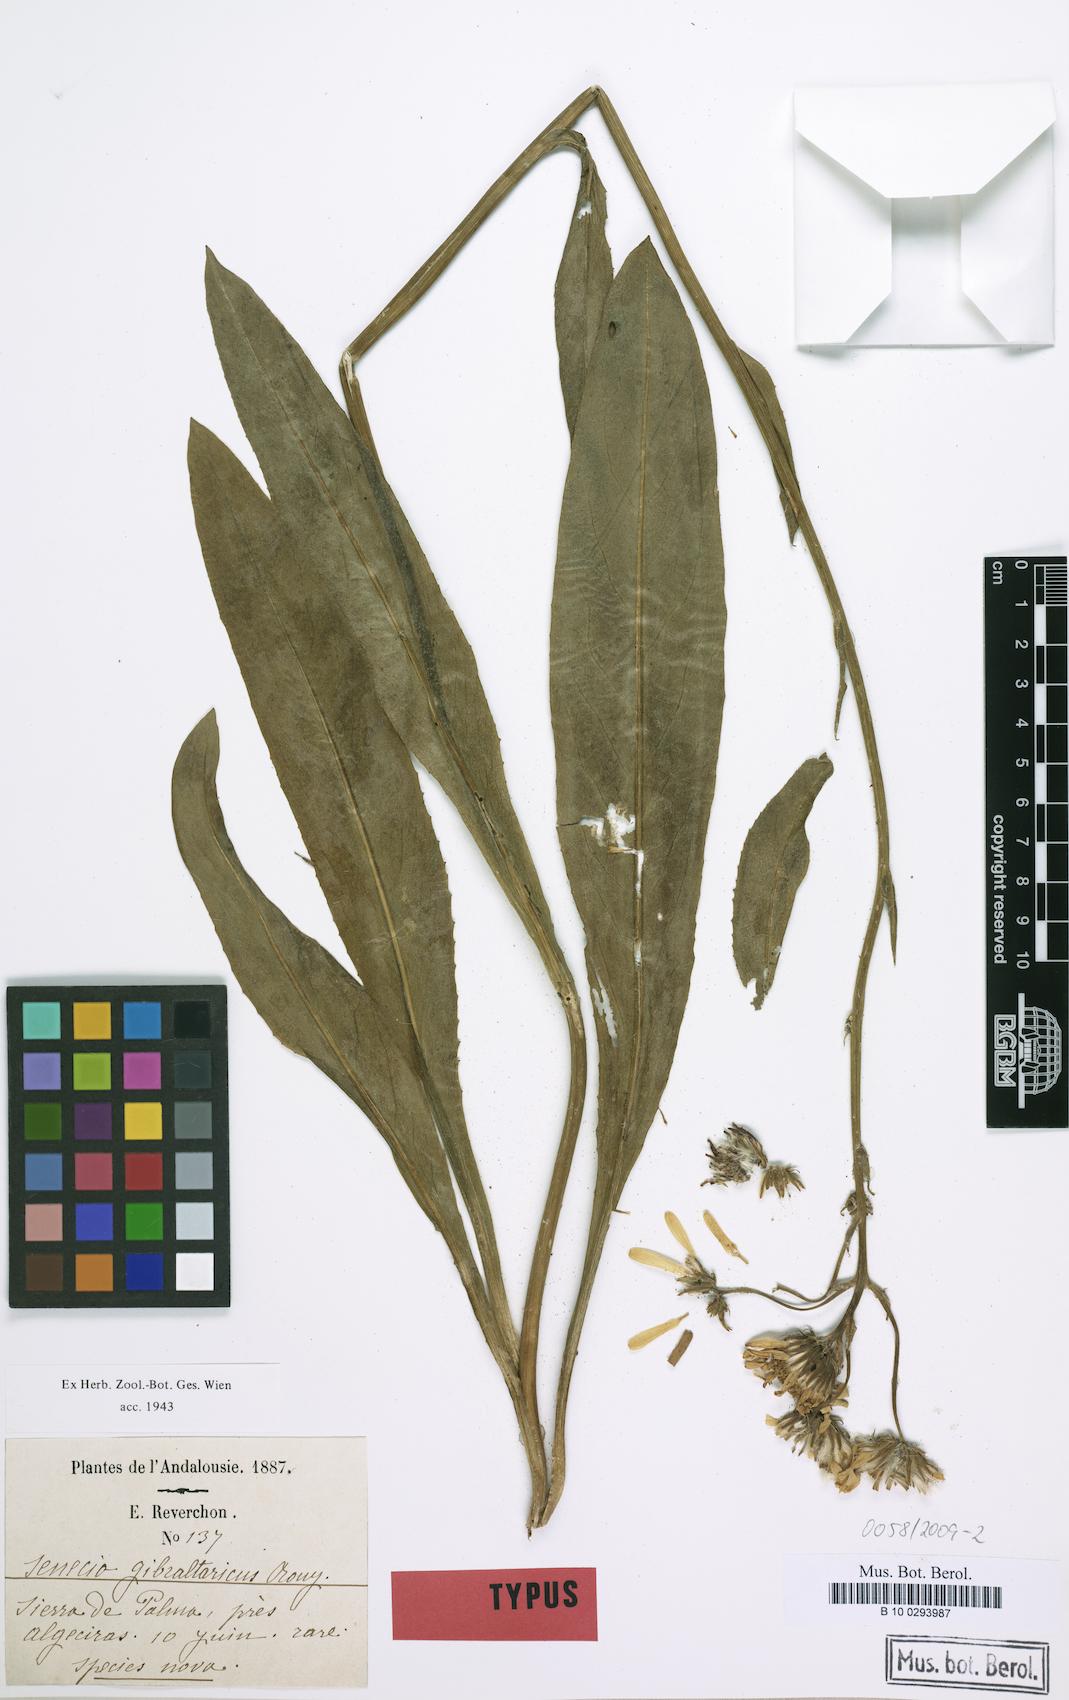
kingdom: Plantae
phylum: Tracheophyta
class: Magnoliopsida
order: Asterales
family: Asteraceae
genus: Senecio
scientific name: Senecio lopezii
